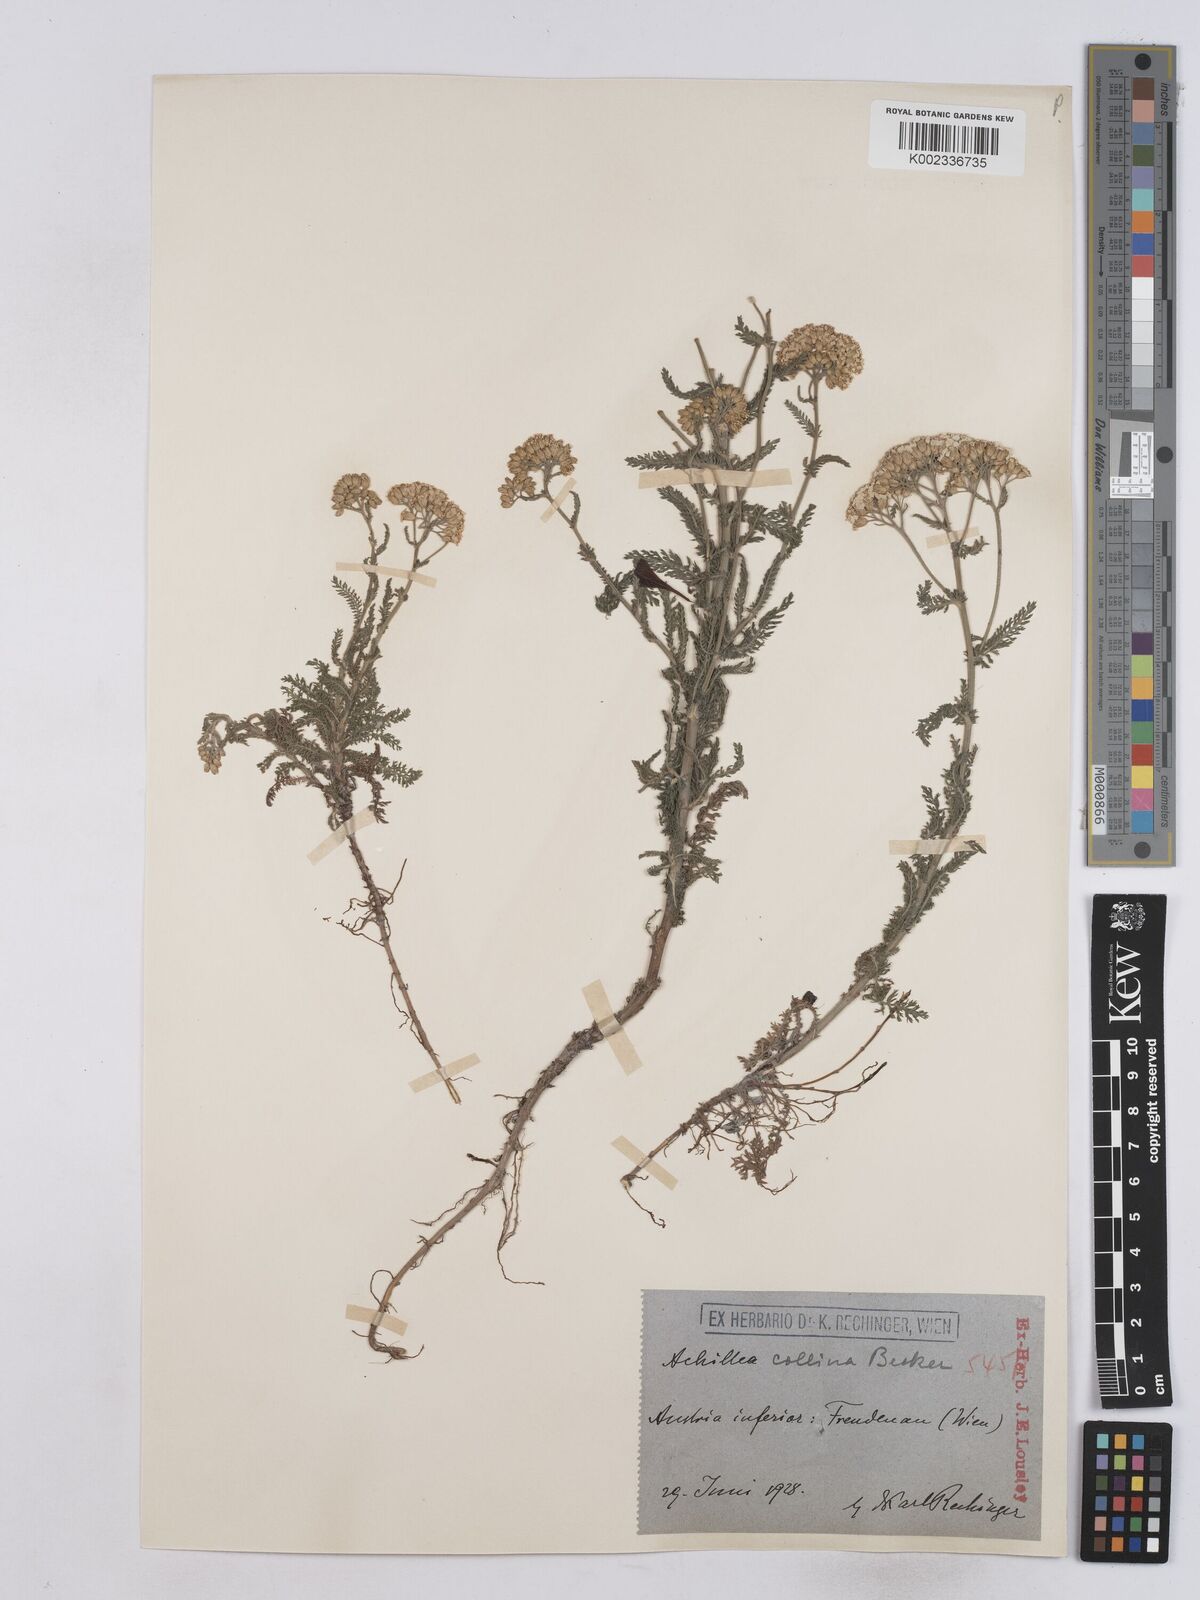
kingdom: Plantae
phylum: Tracheophyta
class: Magnoliopsida
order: Asterales
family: Asteraceae
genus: Achillea
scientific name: Achillea collina
